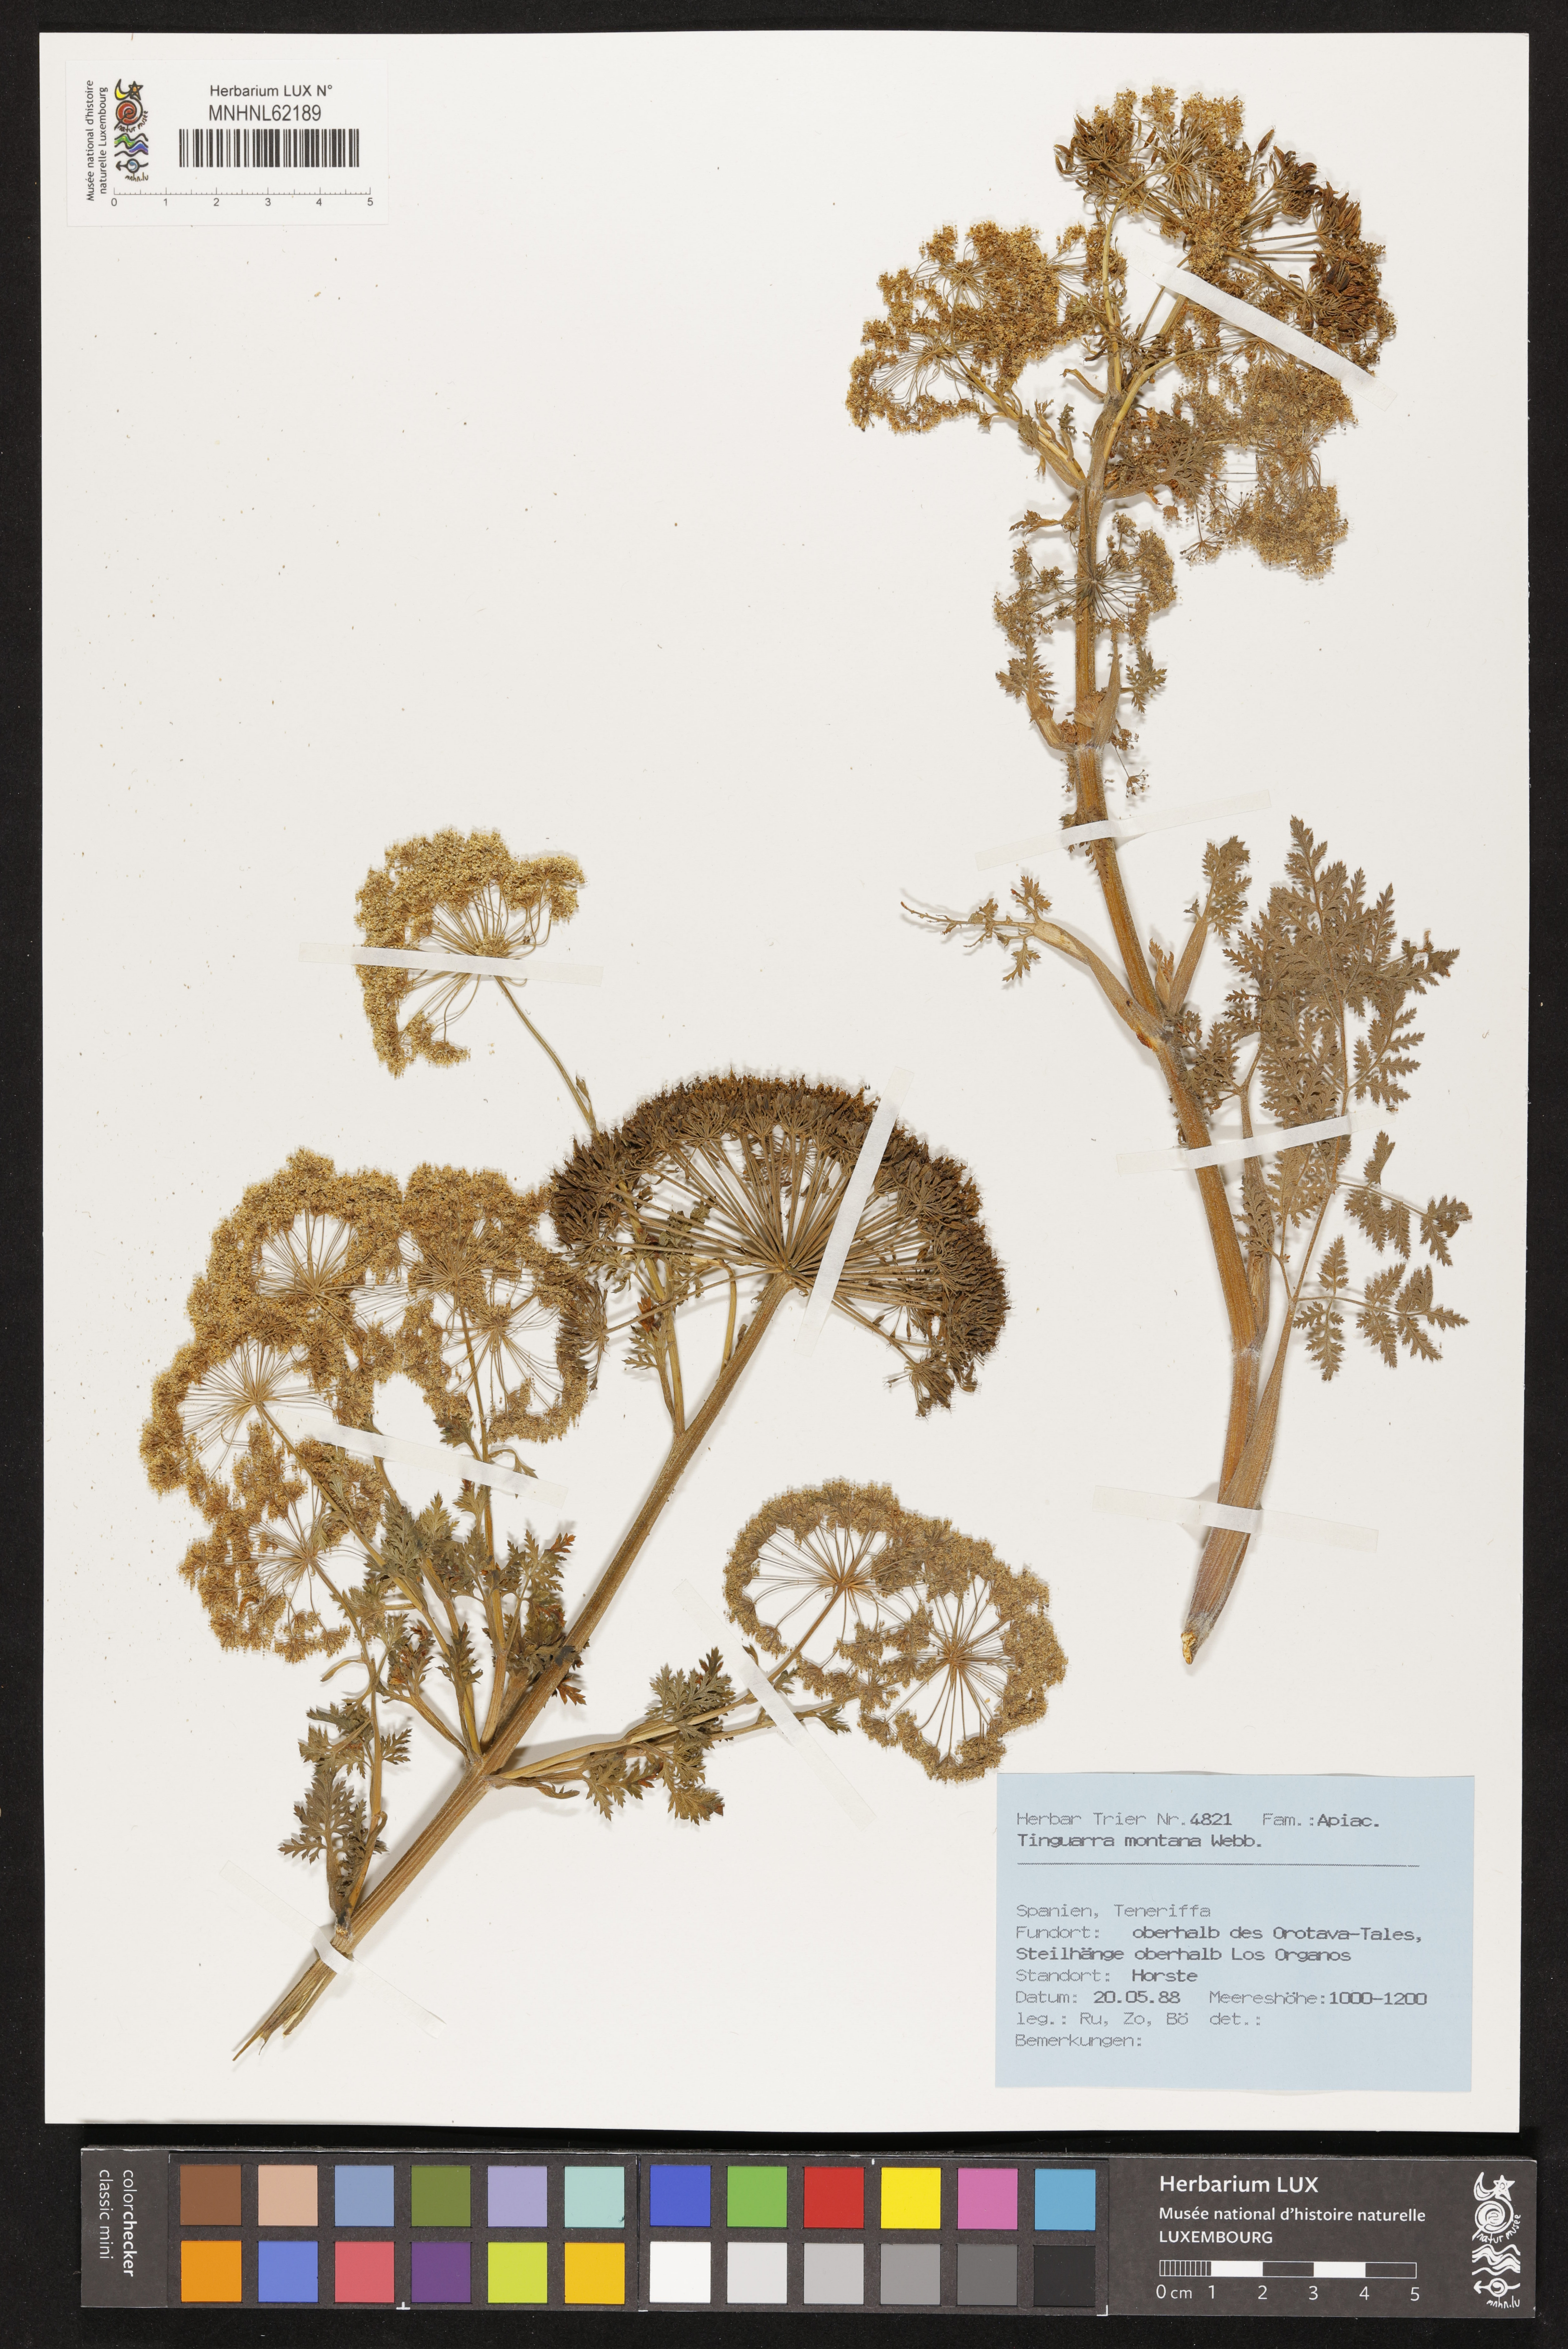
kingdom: Plantae
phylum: Tracheophyta
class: Magnoliopsida
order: Apiales
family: Apiaceae
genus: Athamanta
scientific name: Athamanta montana
